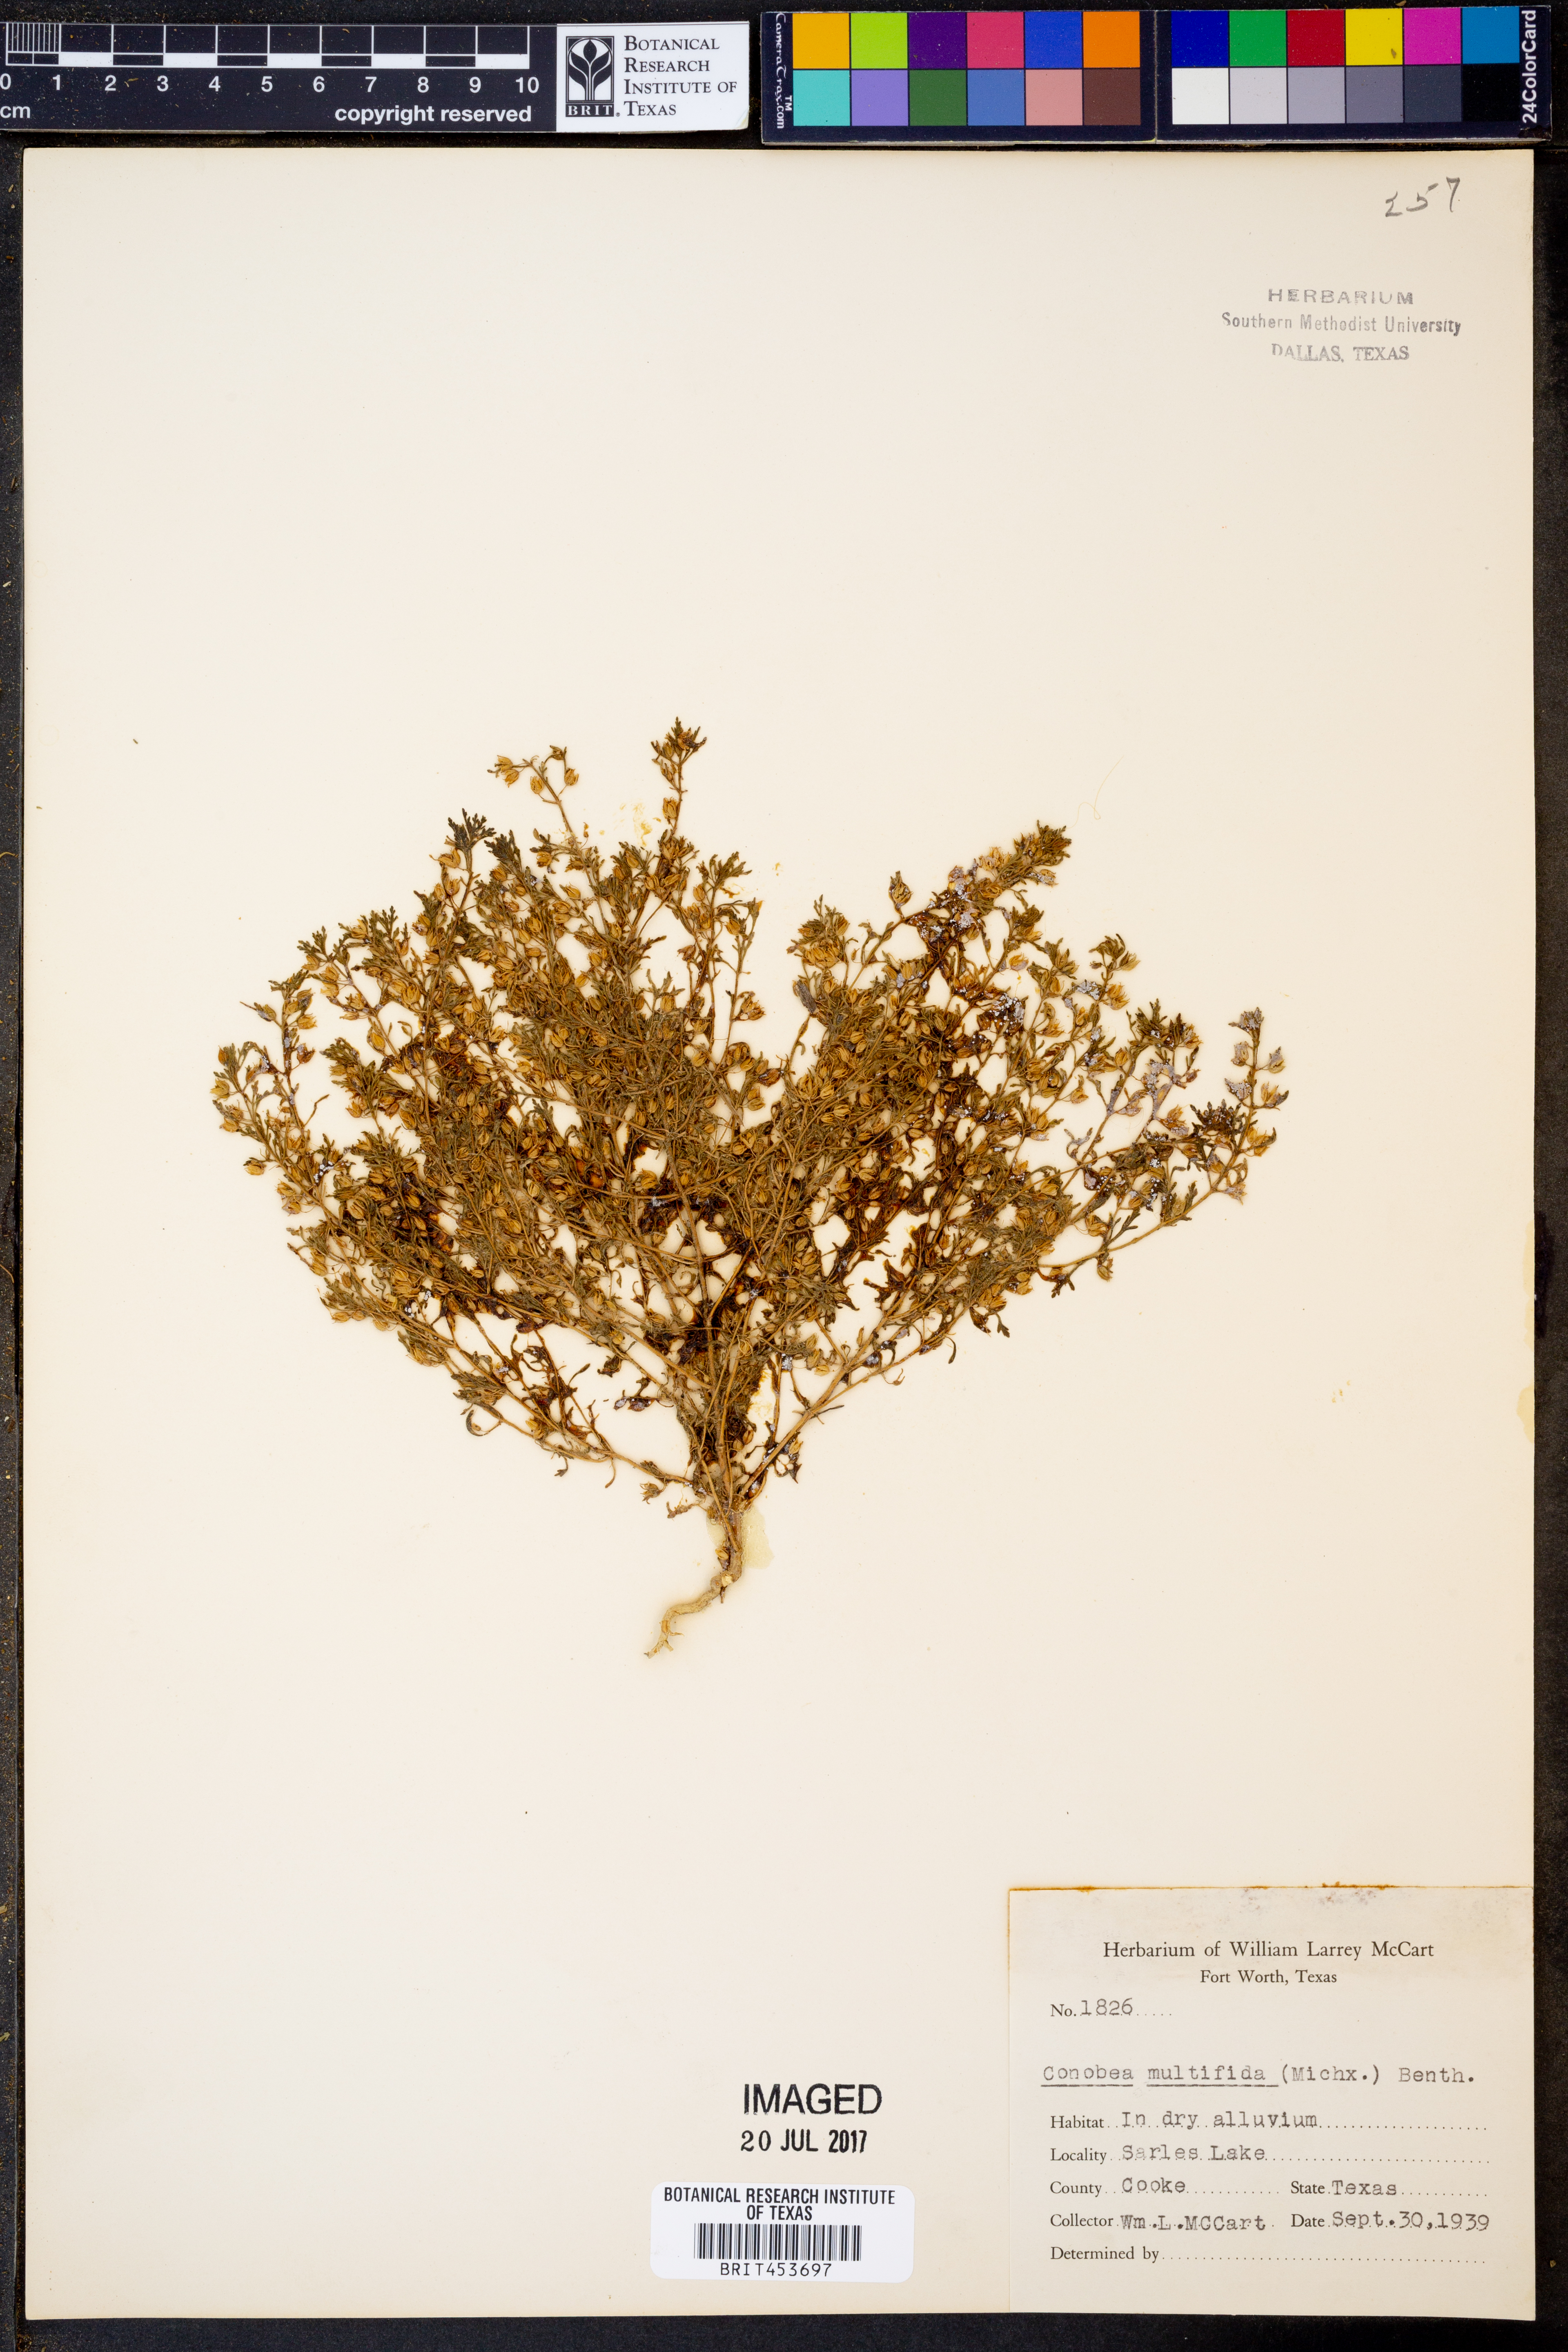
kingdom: Plantae
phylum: Tracheophyta
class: Magnoliopsida
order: Lamiales
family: Plantaginaceae
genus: Leucospora
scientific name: Leucospora multifida
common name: Narrow-leaf paleseed
